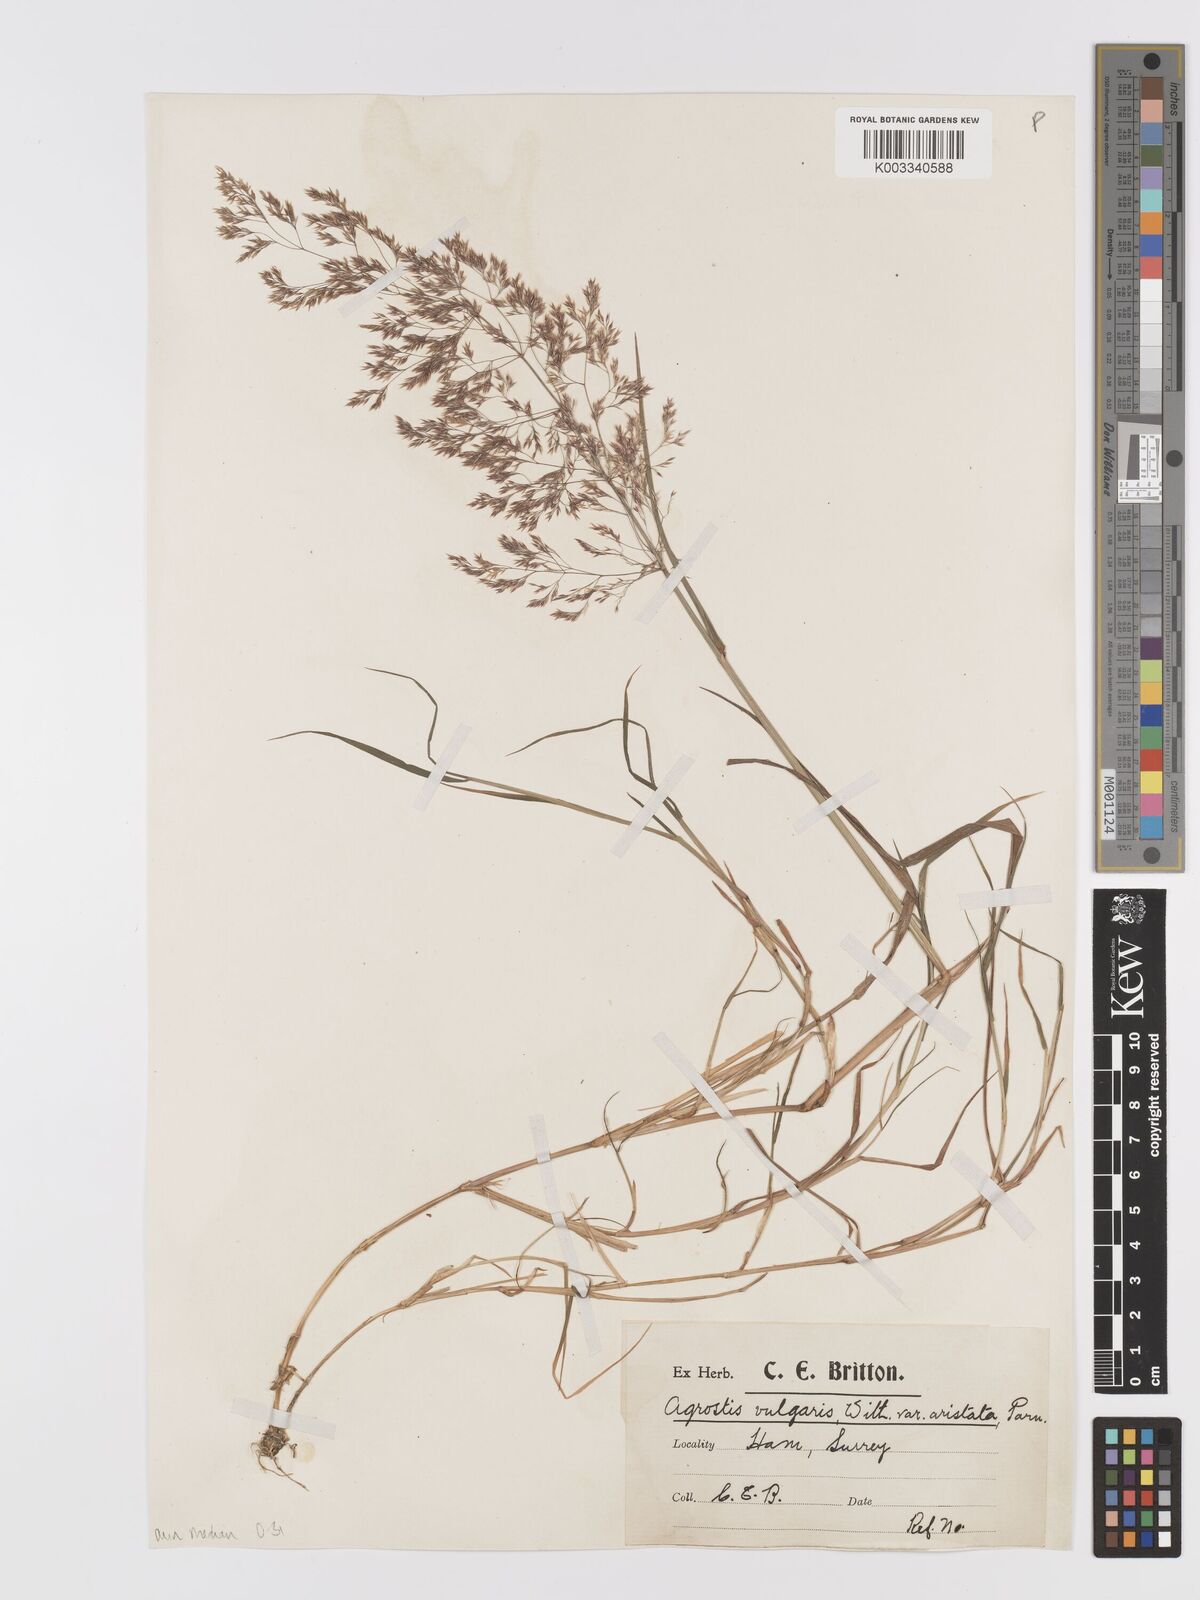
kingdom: Plantae
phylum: Tracheophyta
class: Liliopsida
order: Poales
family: Poaceae
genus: Agrostis
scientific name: Agrostis capillaris
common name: Colonial bentgrass
